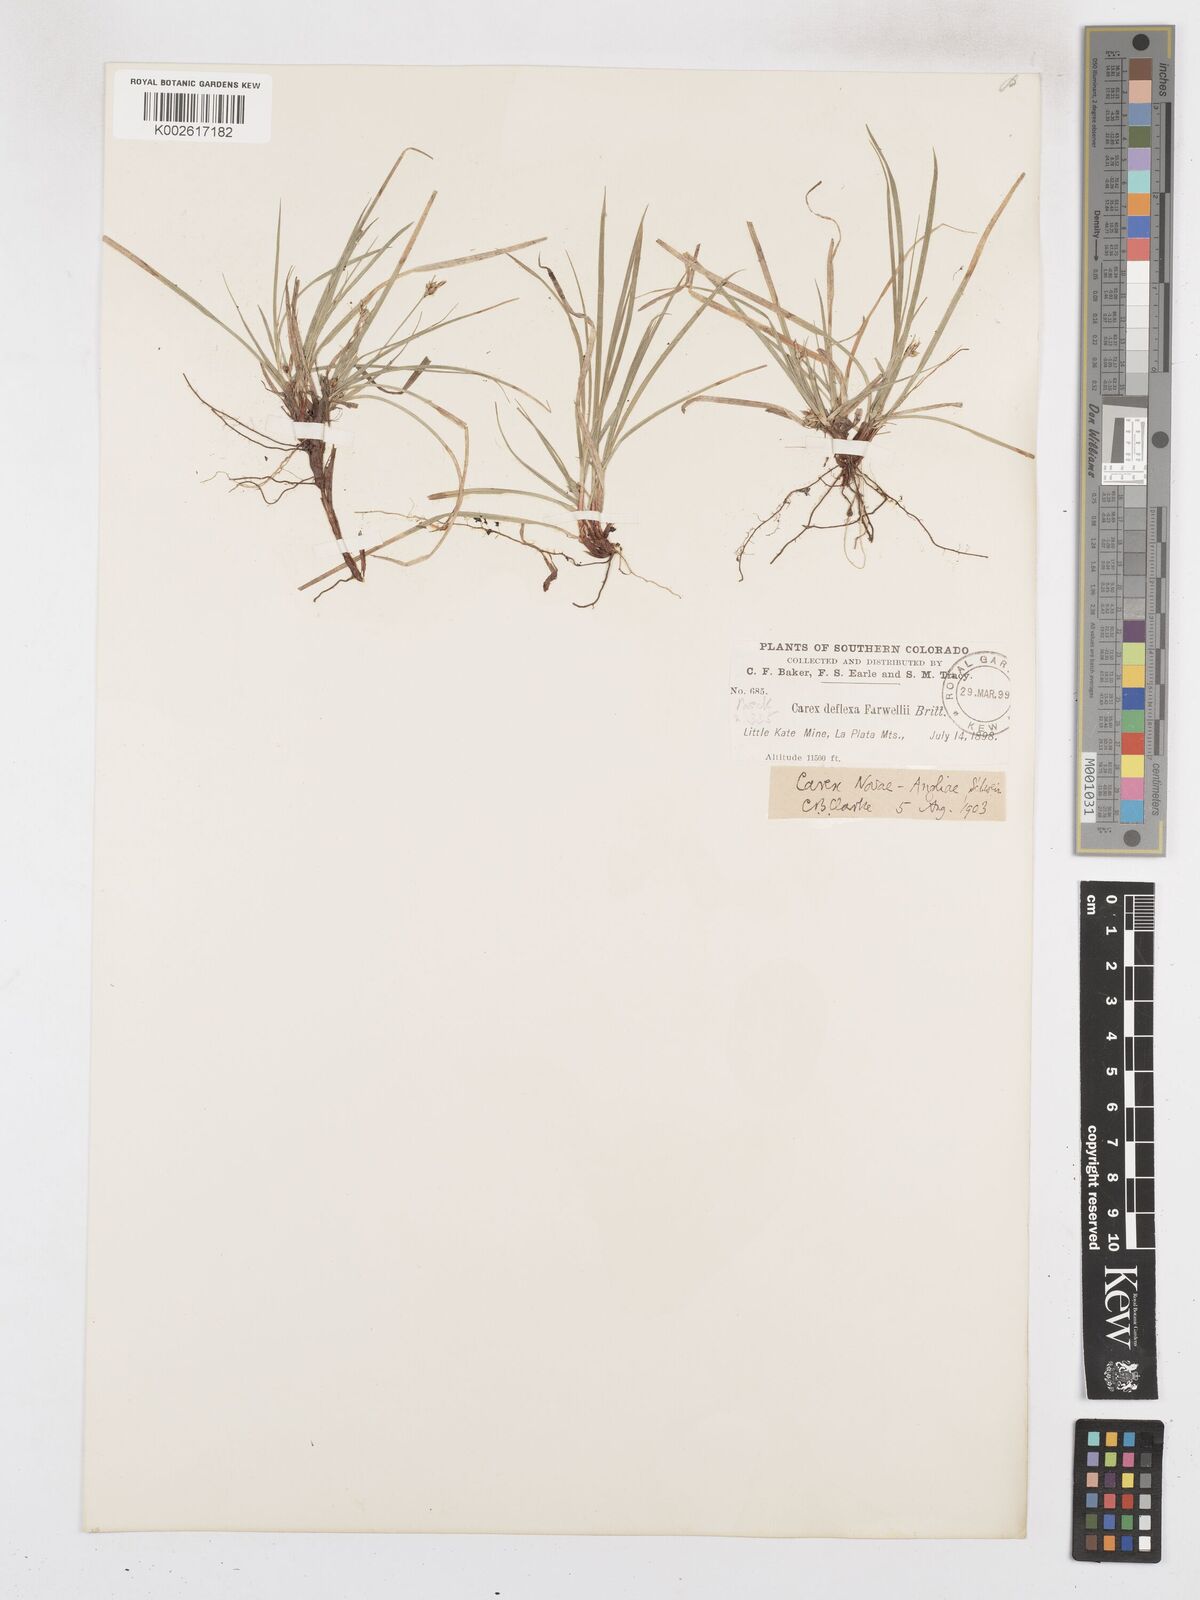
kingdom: Plantae
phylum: Tracheophyta
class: Liliopsida
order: Poales
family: Cyperaceae
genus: Carex
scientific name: Carex novae-angliae
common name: New england sedge
